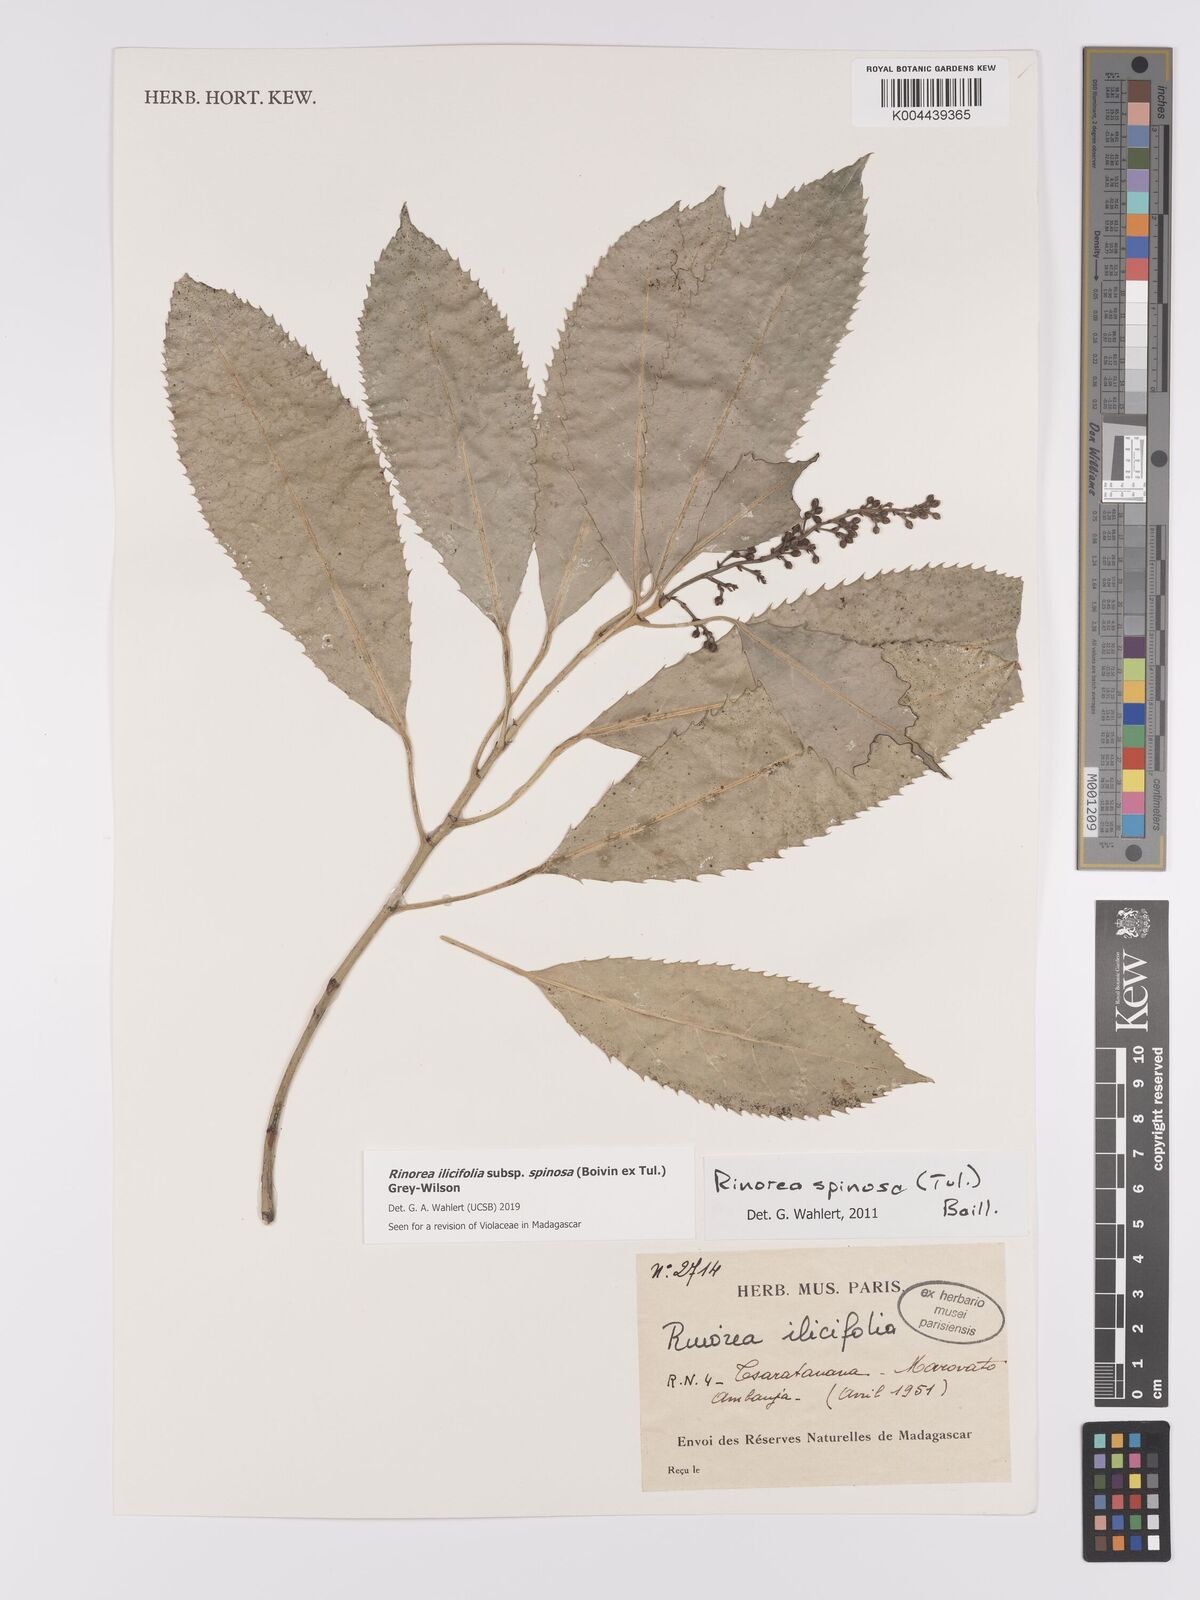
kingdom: Plantae
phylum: Tracheophyta
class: Magnoliopsida
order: Malpighiales
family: Violaceae
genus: Rinorea
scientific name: Rinorea spinosa
